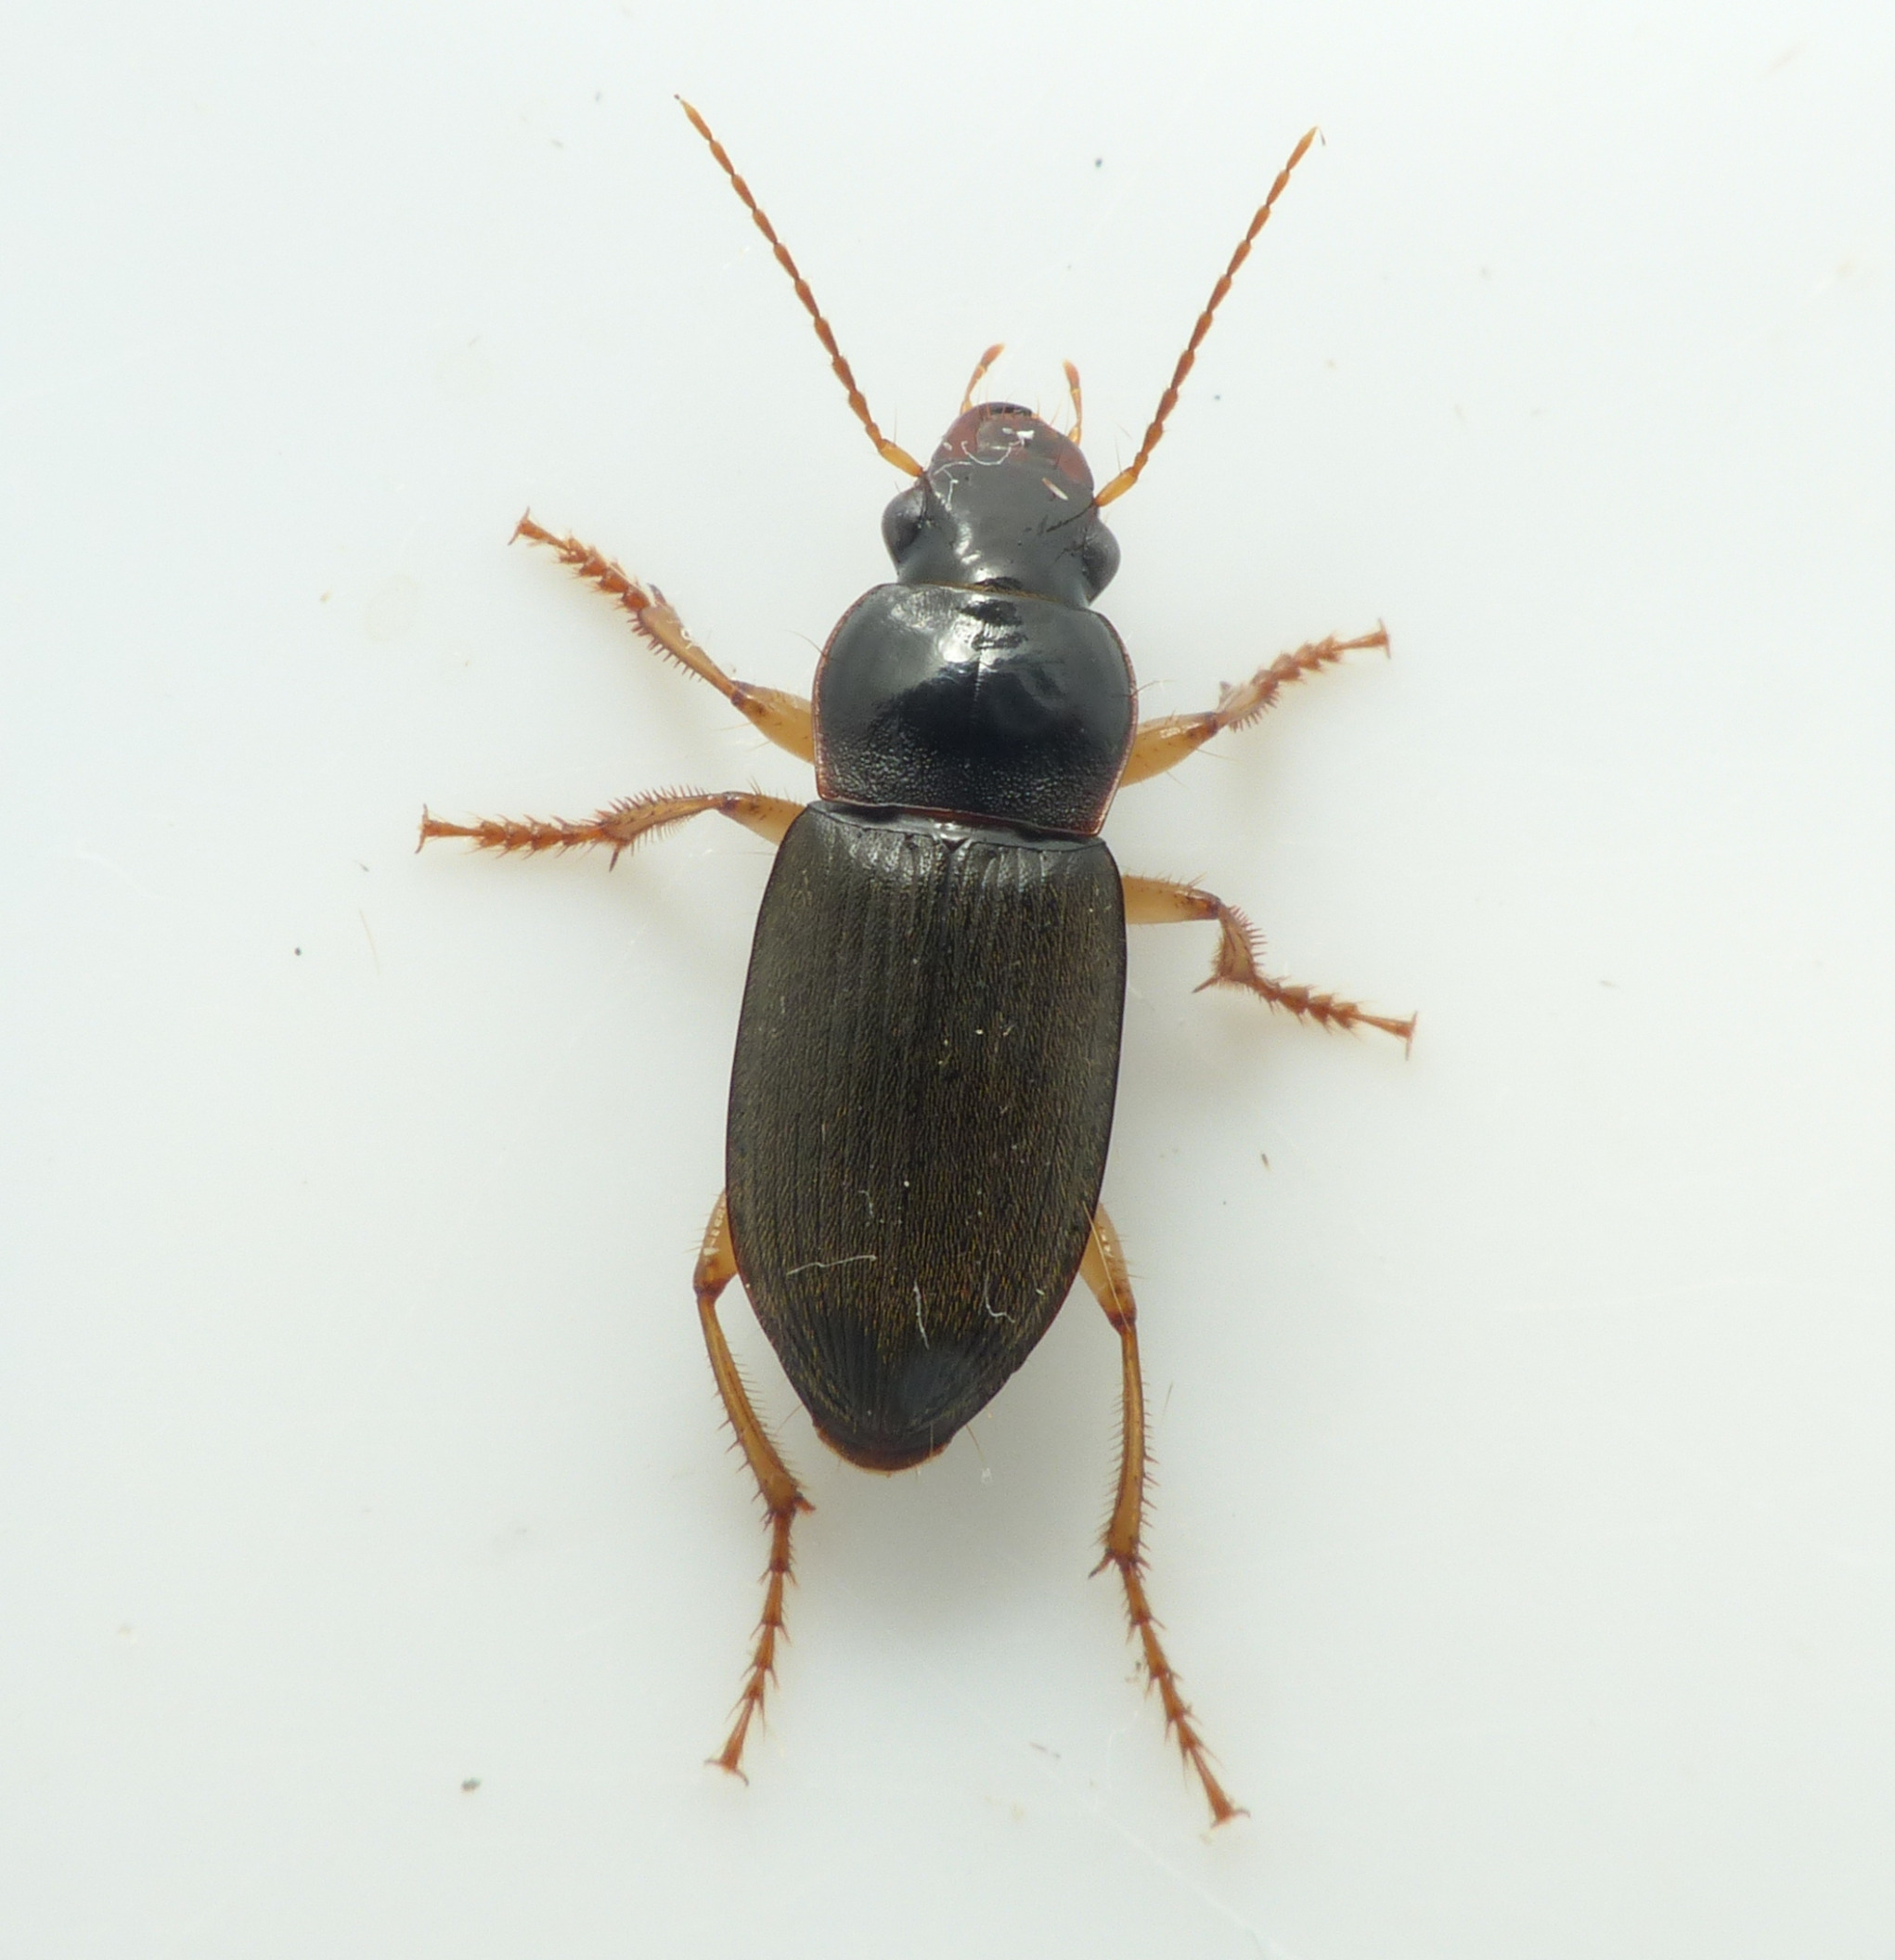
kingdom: Animalia
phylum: Arthropoda
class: Insecta
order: Coleoptera
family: Carabidae
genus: Harpalus
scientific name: Harpalus griseus
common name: Grålig markløber
